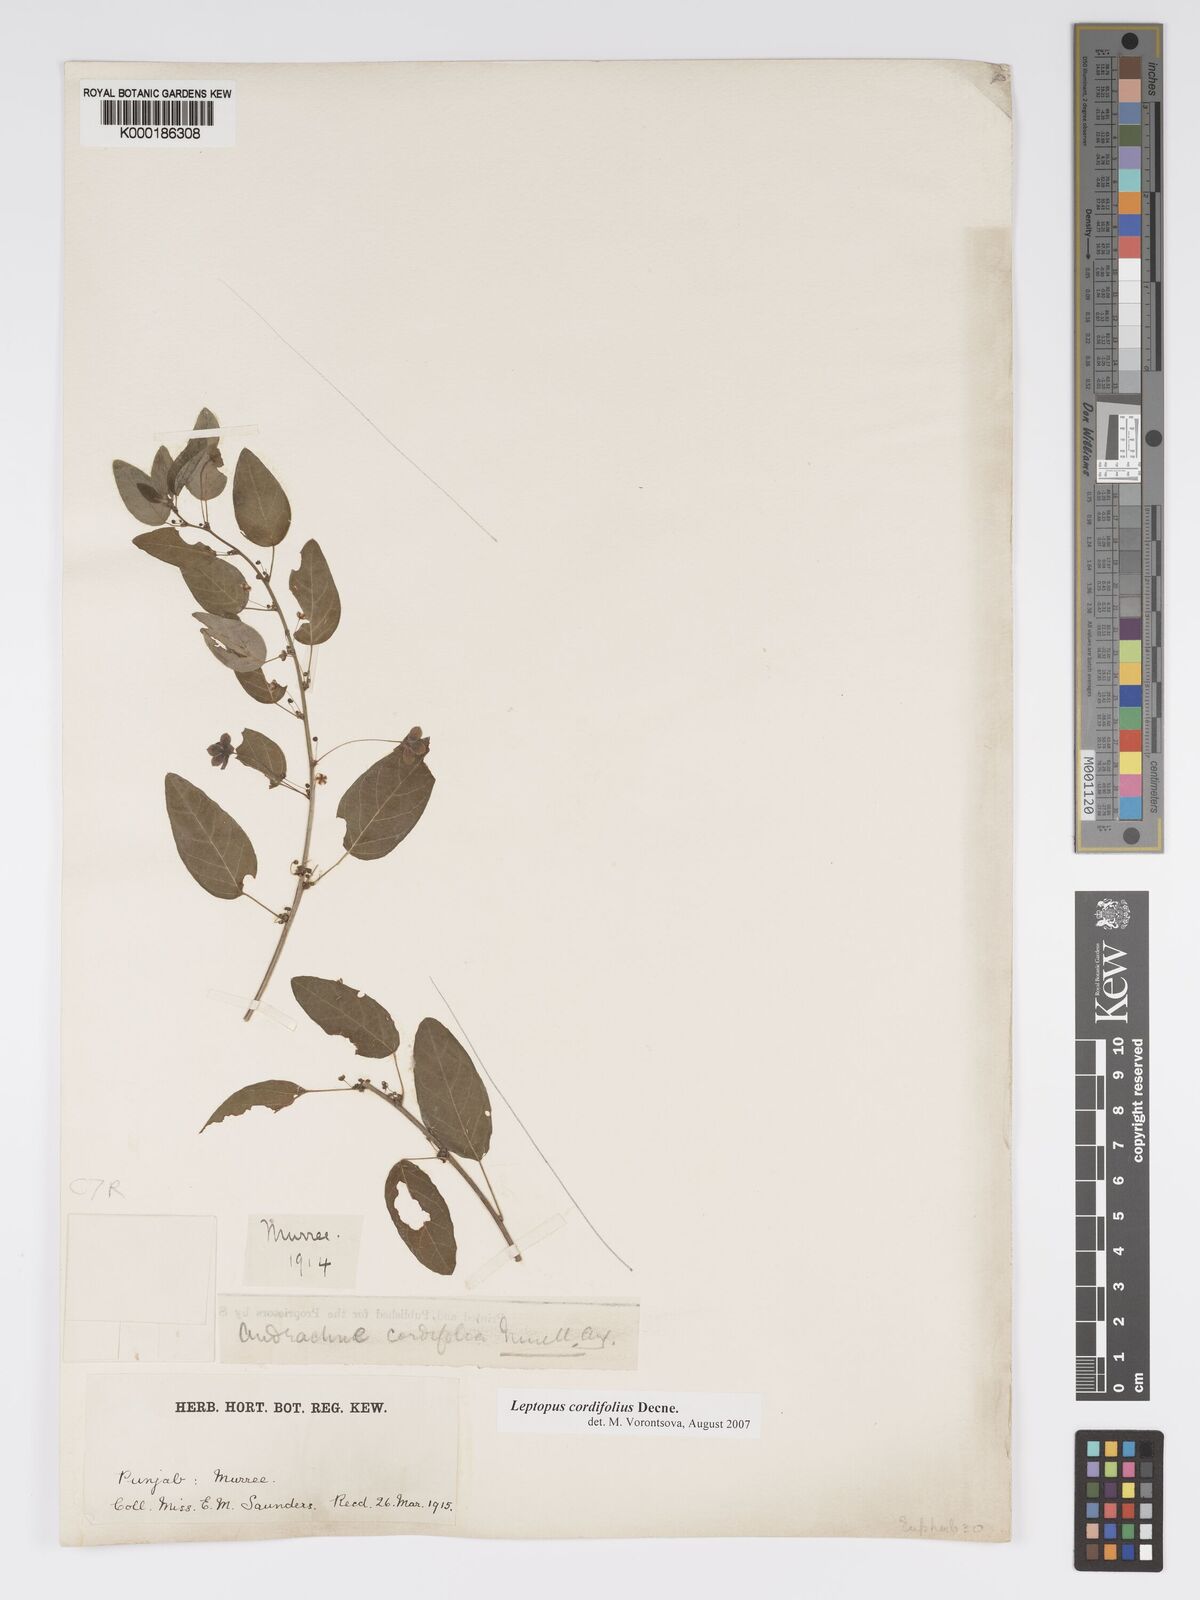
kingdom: Plantae
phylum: Tracheophyta
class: Magnoliopsida
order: Malpighiales
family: Phyllanthaceae
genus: Leptopus
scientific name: Leptopus cordifolius
